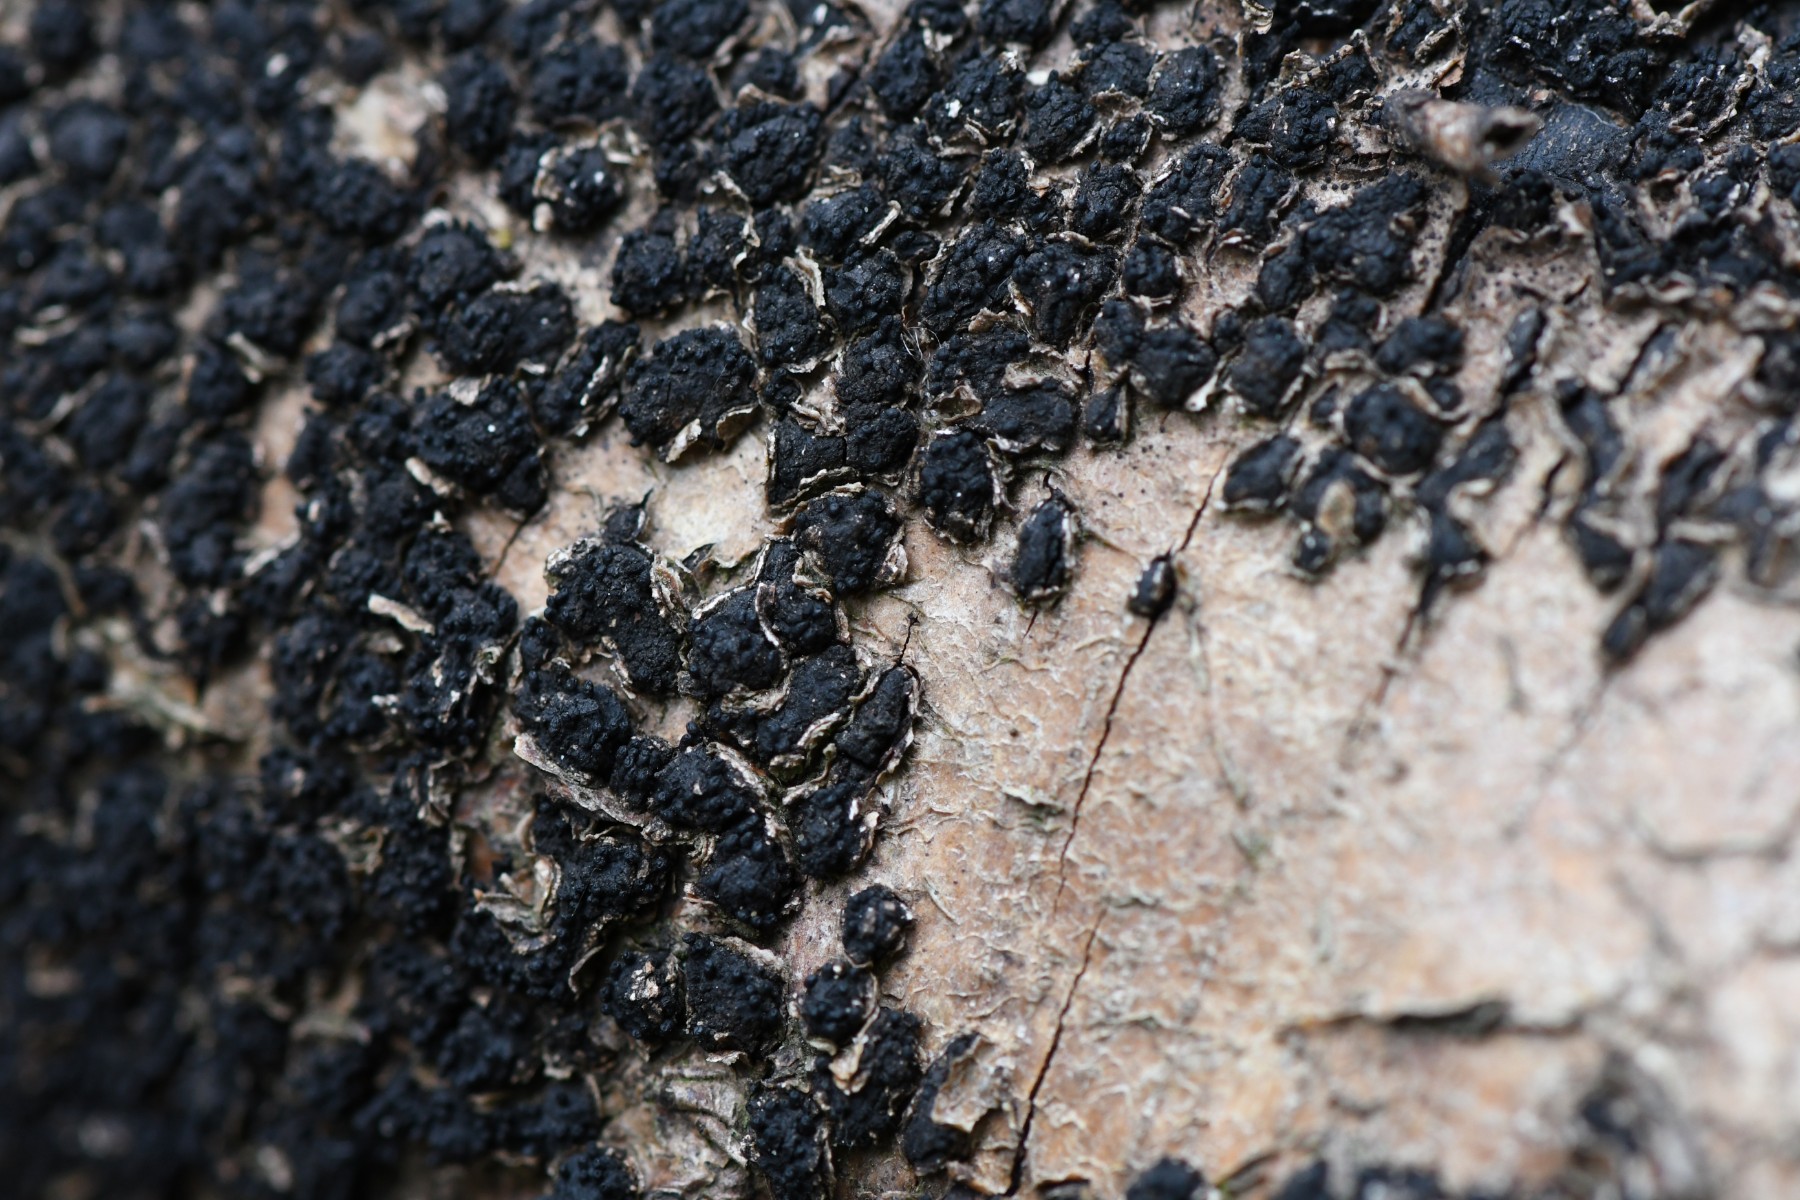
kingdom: Fungi
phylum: Ascomycota
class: Sordariomycetes
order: Xylariales
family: Melogrammataceae
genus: Melogramma
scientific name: Melogramma spiniferum
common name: bøgefod-kulhals
